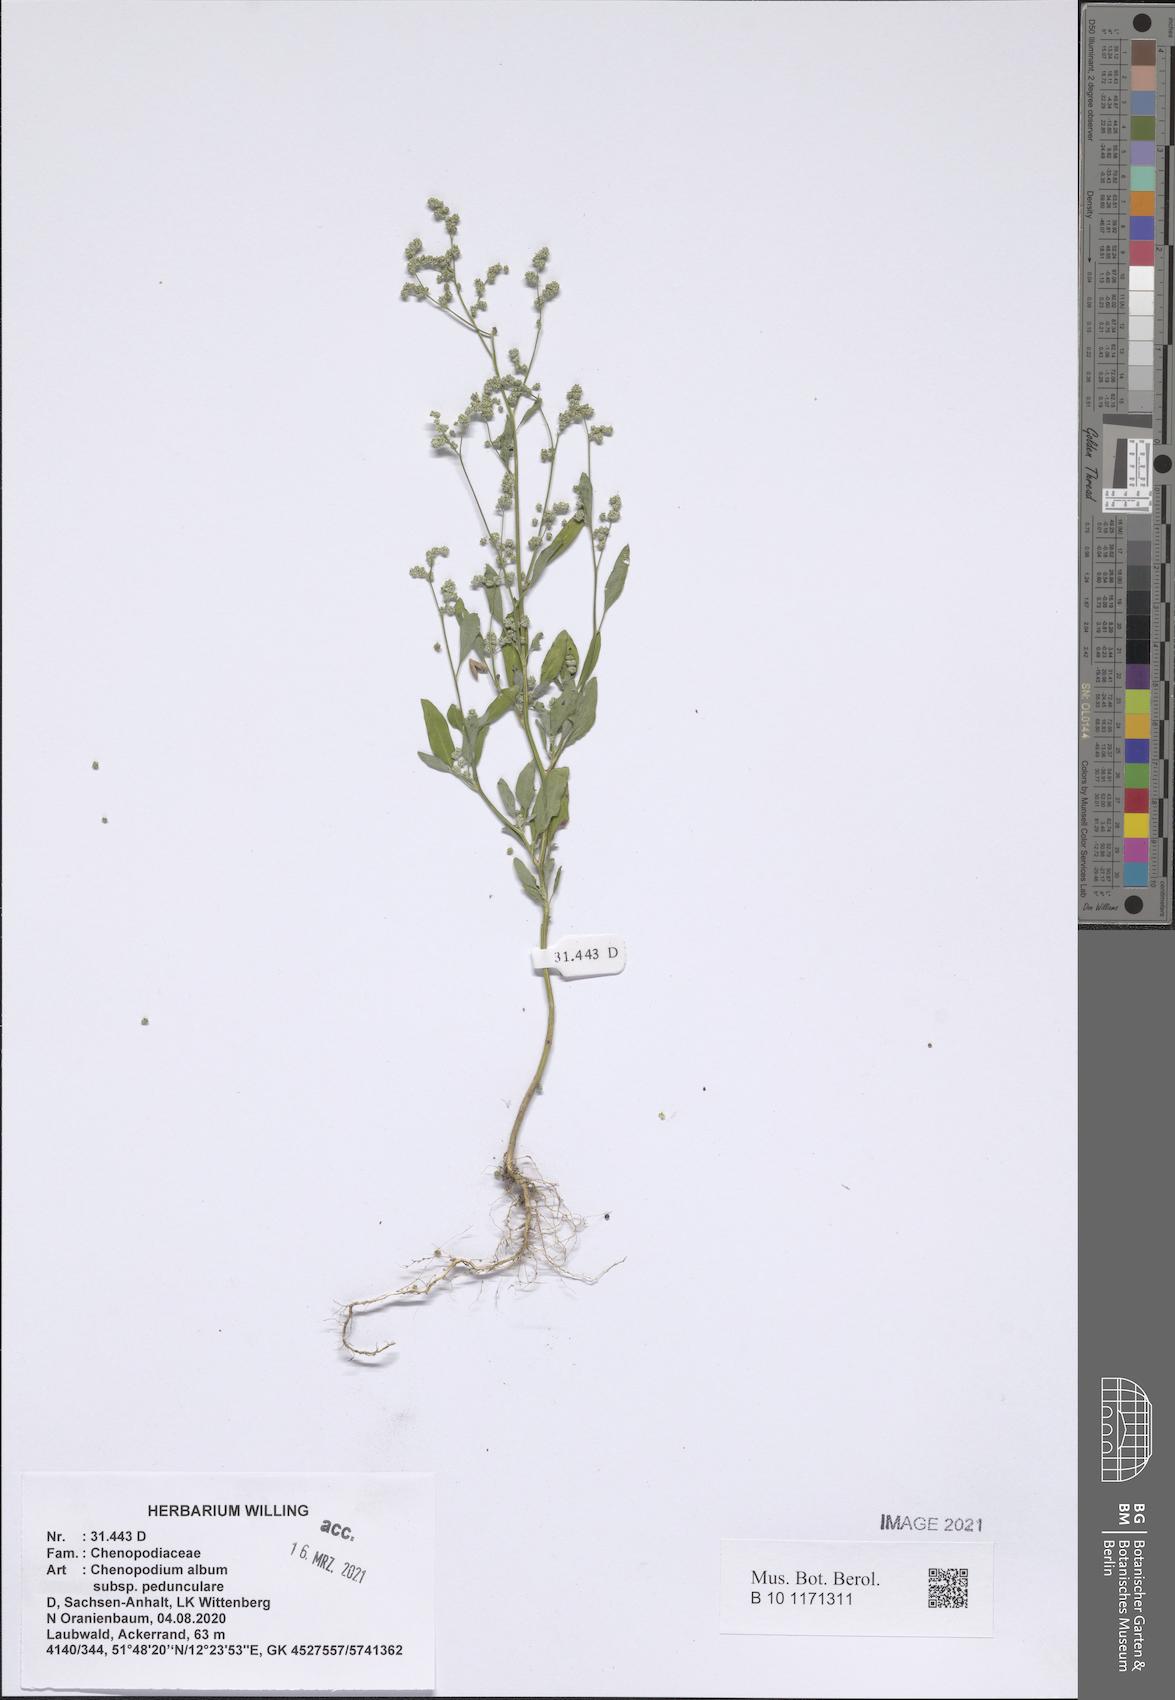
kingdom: Plantae
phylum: Tracheophyta
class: Magnoliopsida
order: Caryophyllales
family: Amaranthaceae
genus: Chenopodium
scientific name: Chenopodium album
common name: Fat-hen
